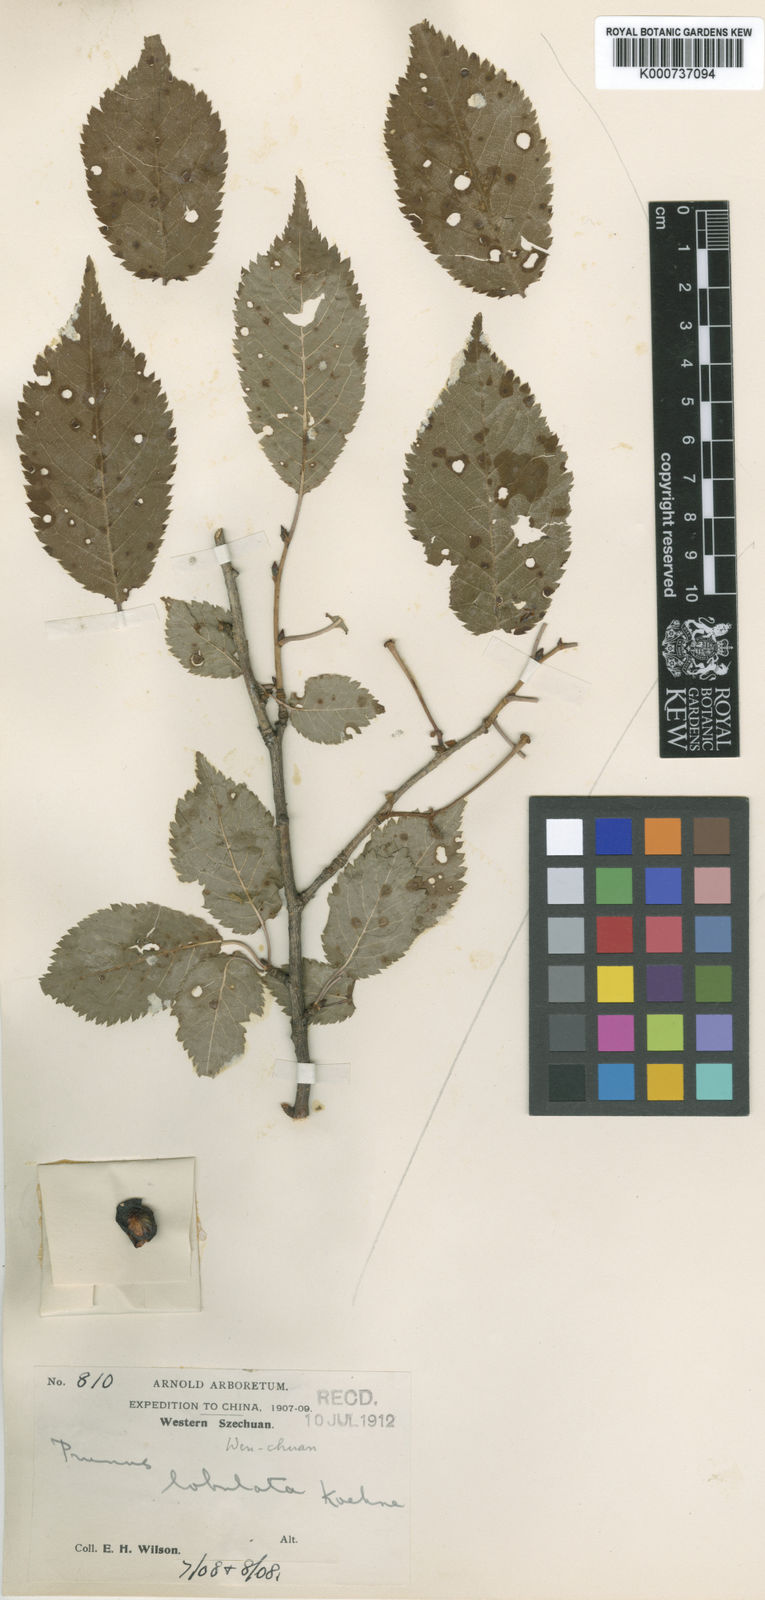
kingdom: Plantae
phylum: Tracheophyta
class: Magnoliopsida
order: Rosales
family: Rosaceae
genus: Prunus
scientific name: Prunus trichostoma
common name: Ribbed cherry
